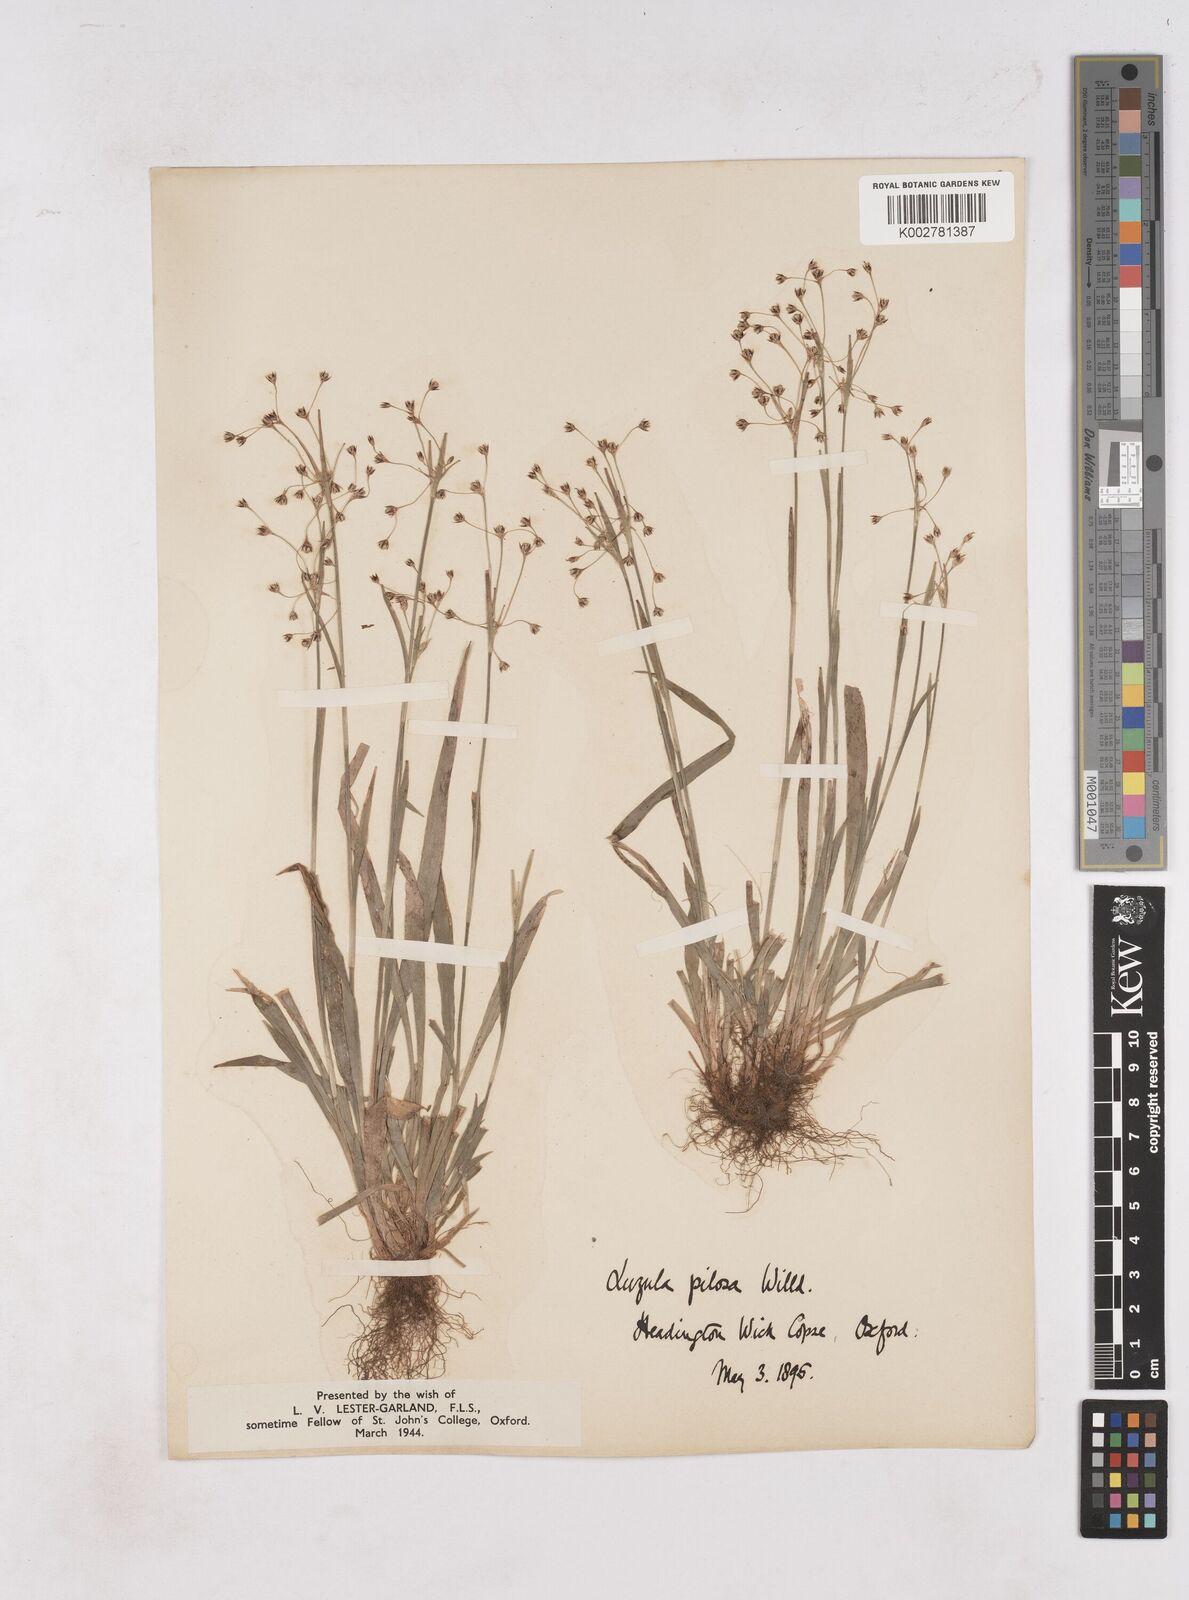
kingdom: Plantae
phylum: Tracheophyta
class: Liliopsida
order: Poales
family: Juncaceae
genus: Luzula
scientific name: Luzula pilosa
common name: Hairy wood-rush
